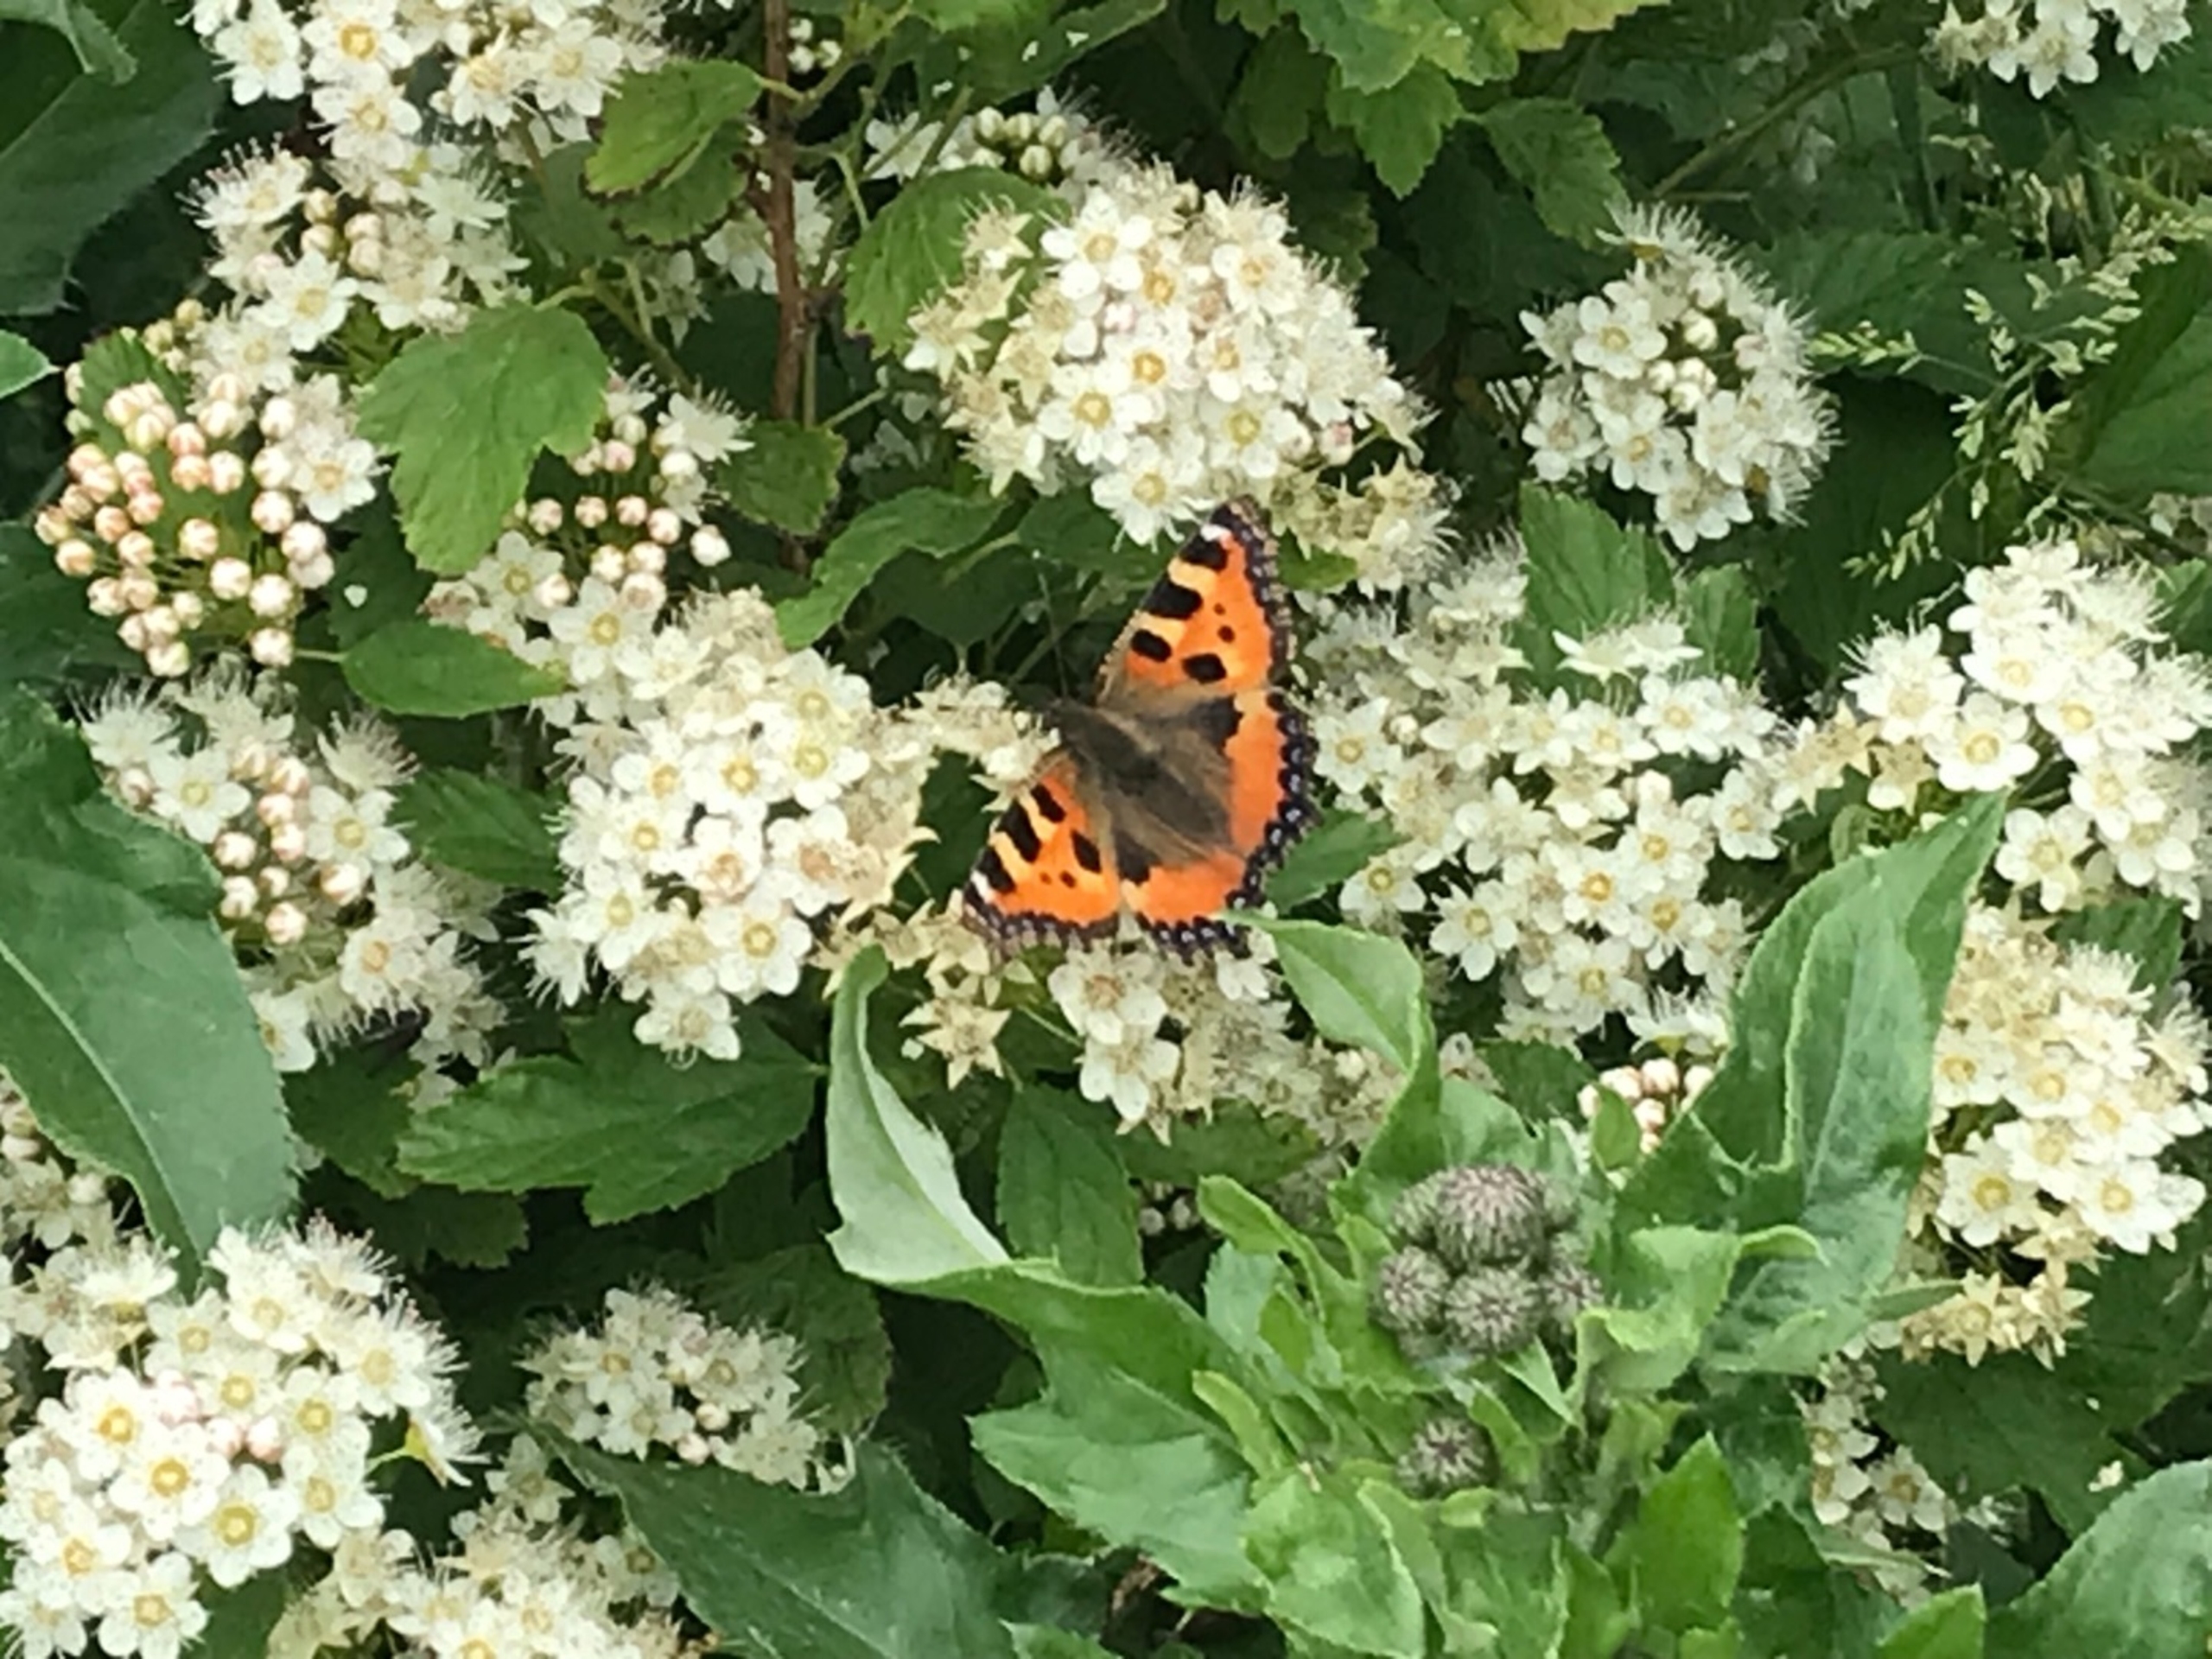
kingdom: Animalia
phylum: Arthropoda
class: Insecta
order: Lepidoptera
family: Nymphalidae
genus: Aglais
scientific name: Aglais urticae
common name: Nældens takvinge
